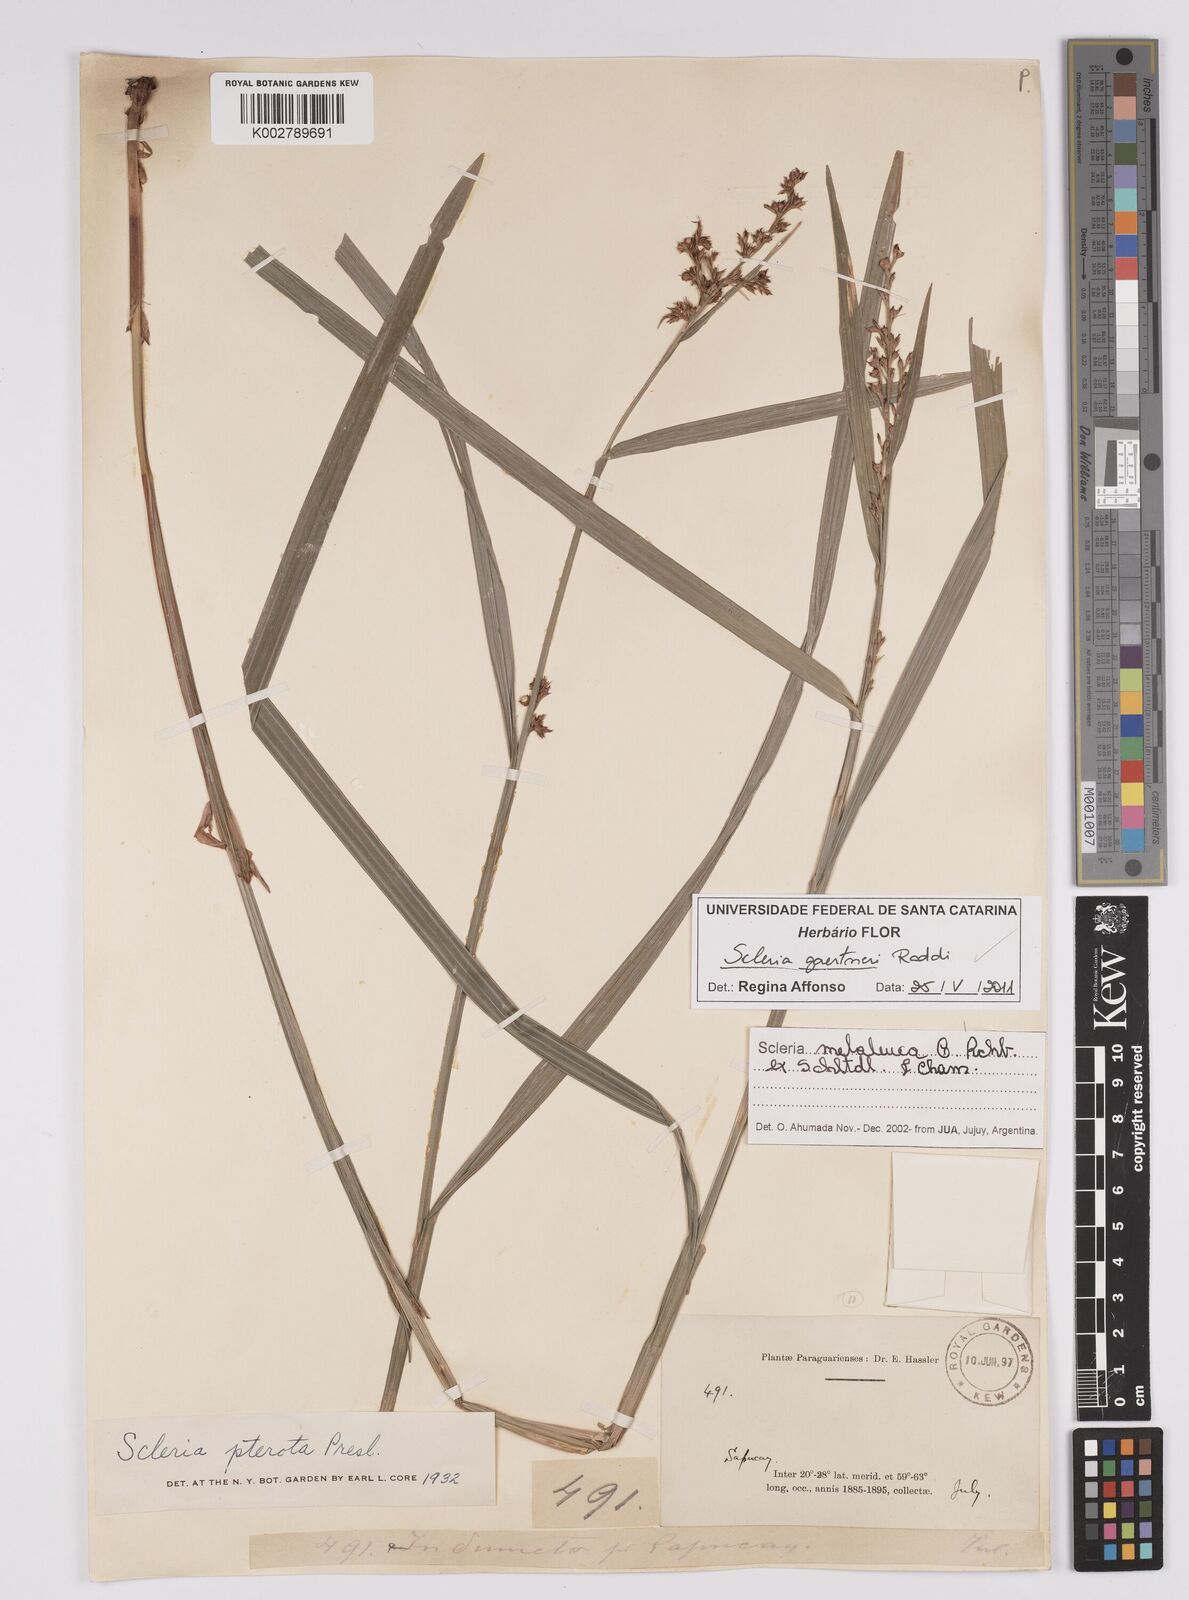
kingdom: Plantae
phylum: Tracheophyta
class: Liliopsida
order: Poales
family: Cyperaceae
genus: Scleria
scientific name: Scleria gaertneri
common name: Cortadera blanca
